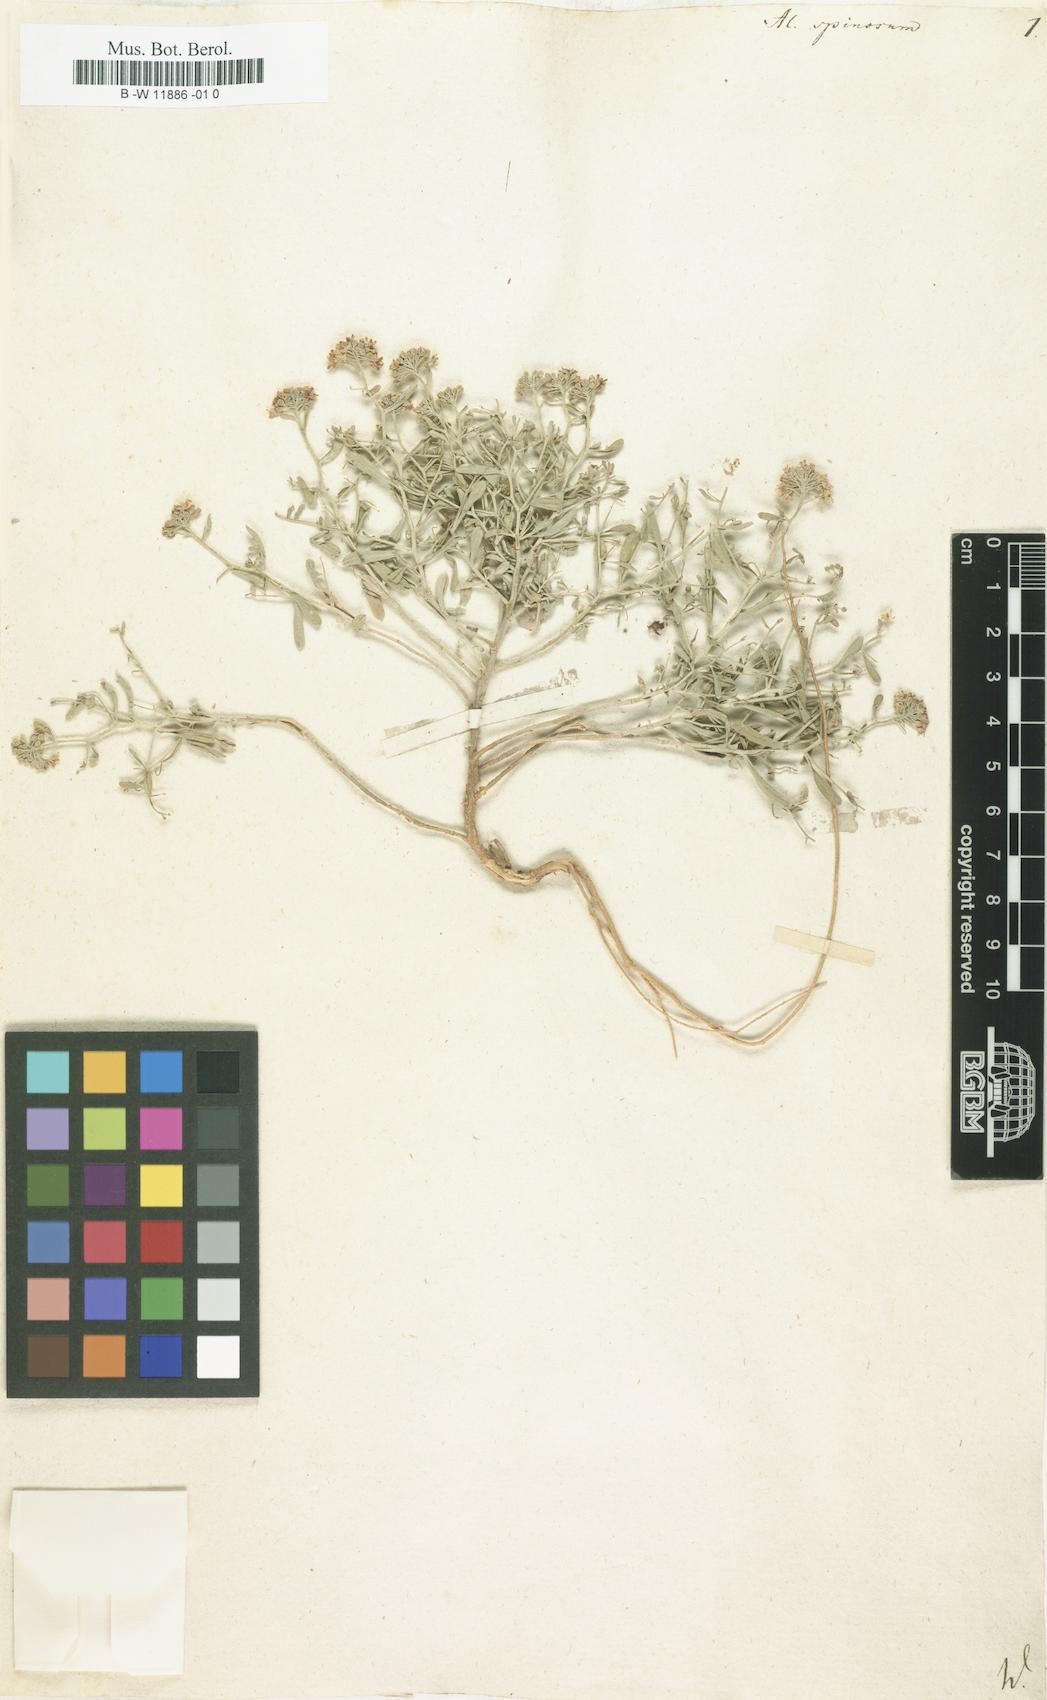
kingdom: Plantae
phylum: Tracheophyta
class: Magnoliopsida
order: Brassicales
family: Brassicaceae
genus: Hormathophylla
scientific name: Hormathophylla spinosa
